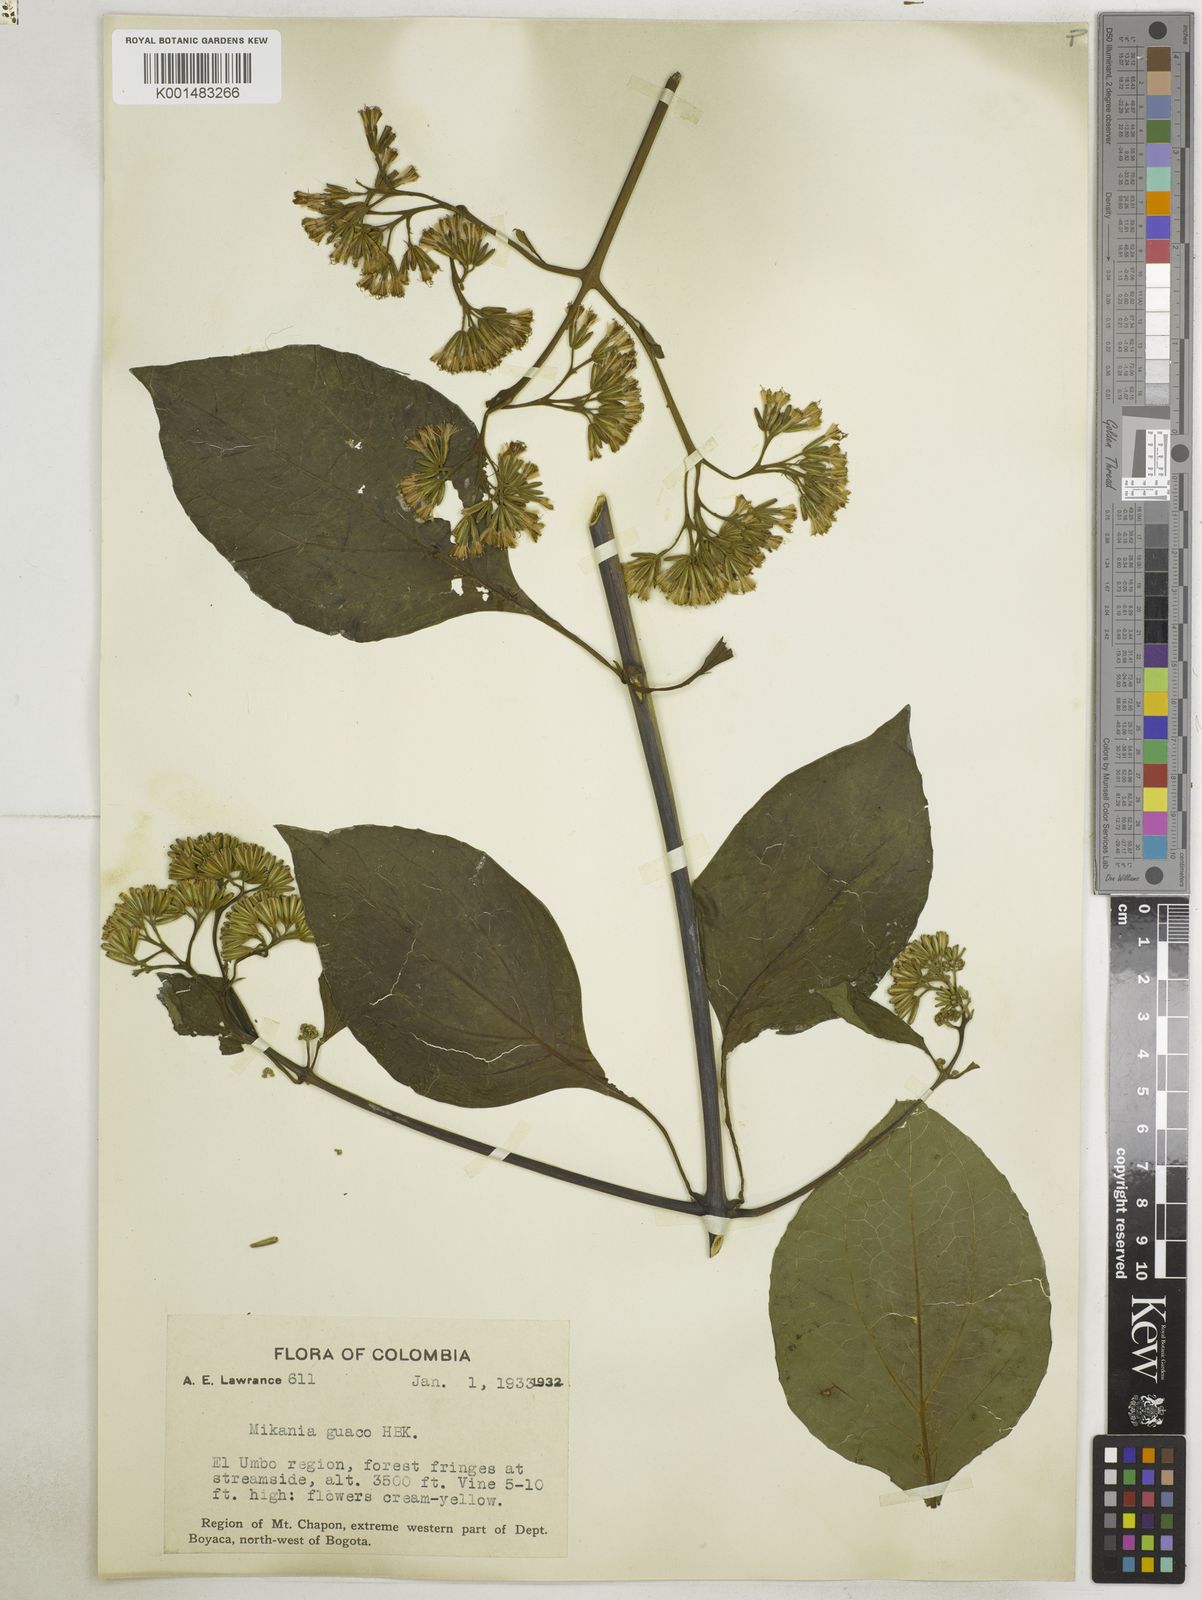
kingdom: Plantae
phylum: Tracheophyta
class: Magnoliopsida
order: Asterales
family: Asteraceae
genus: Mikania
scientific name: Mikania guaco
